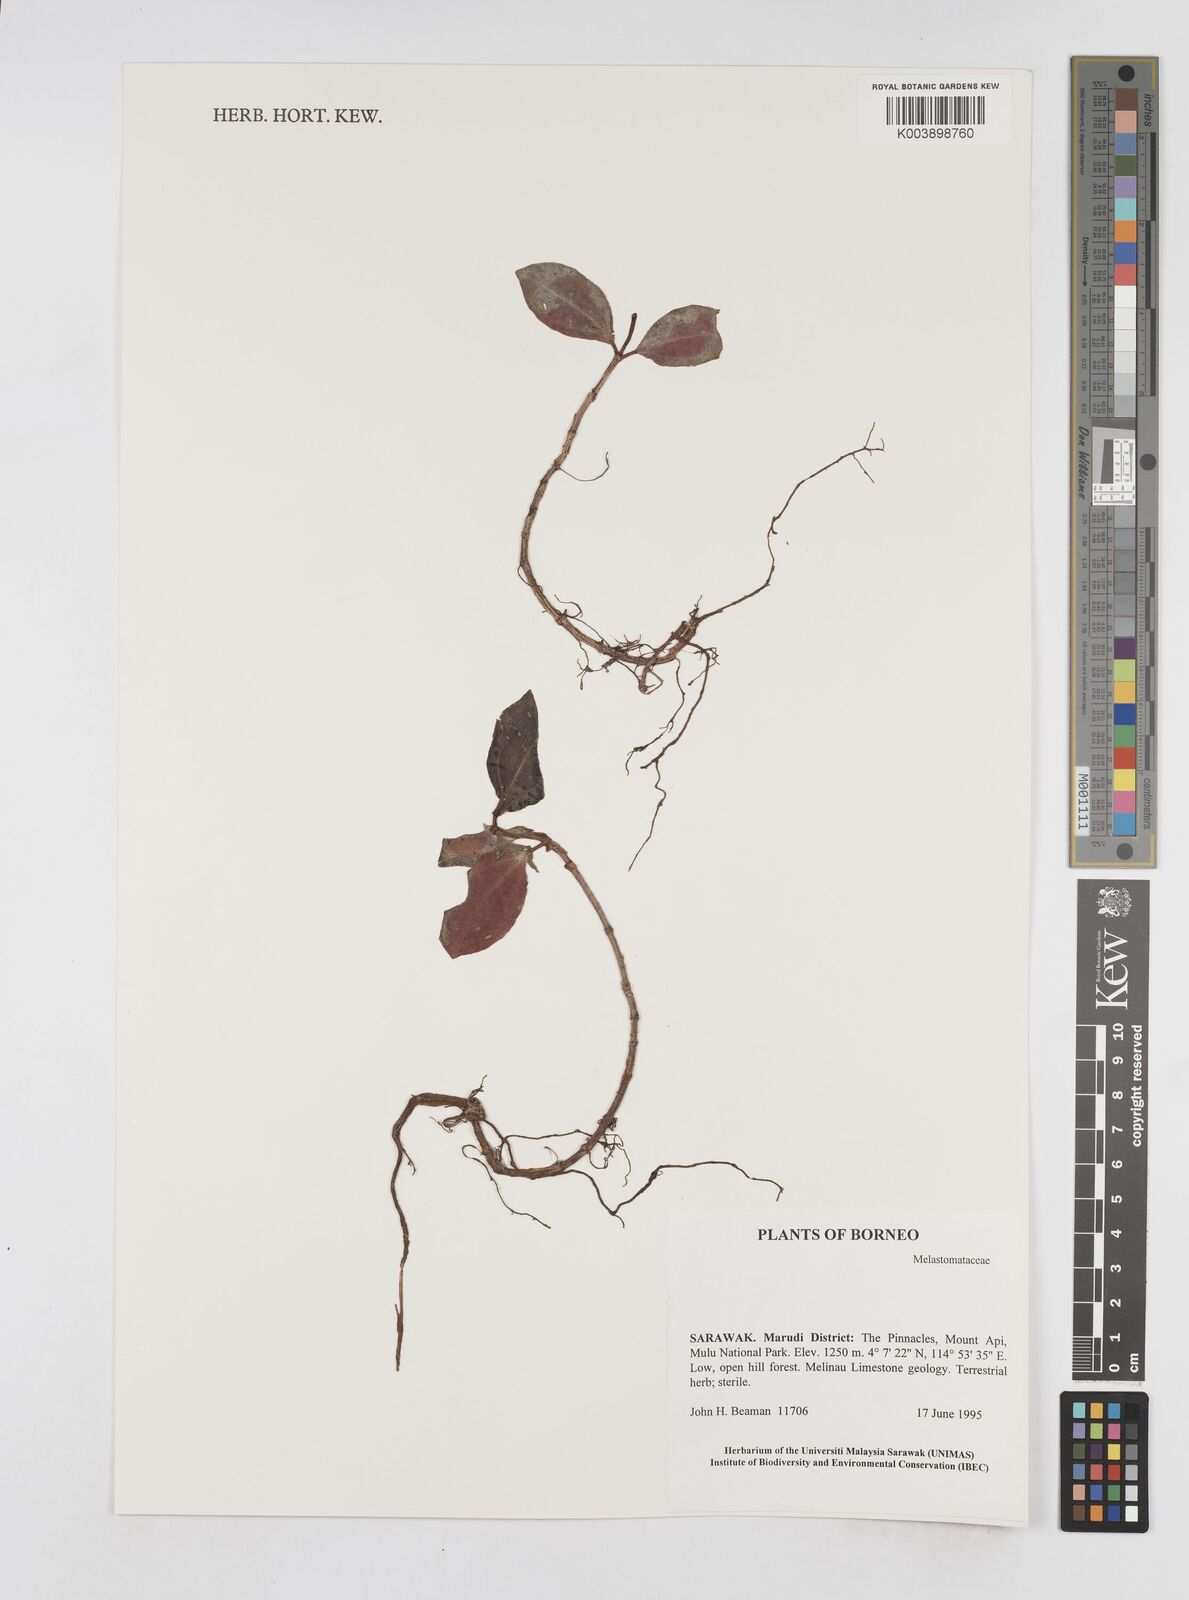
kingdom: Plantae
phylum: Tracheophyta
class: Magnoliopsida
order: Myrtales
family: Melastomataceae
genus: Sonerila
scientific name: Sonerila
